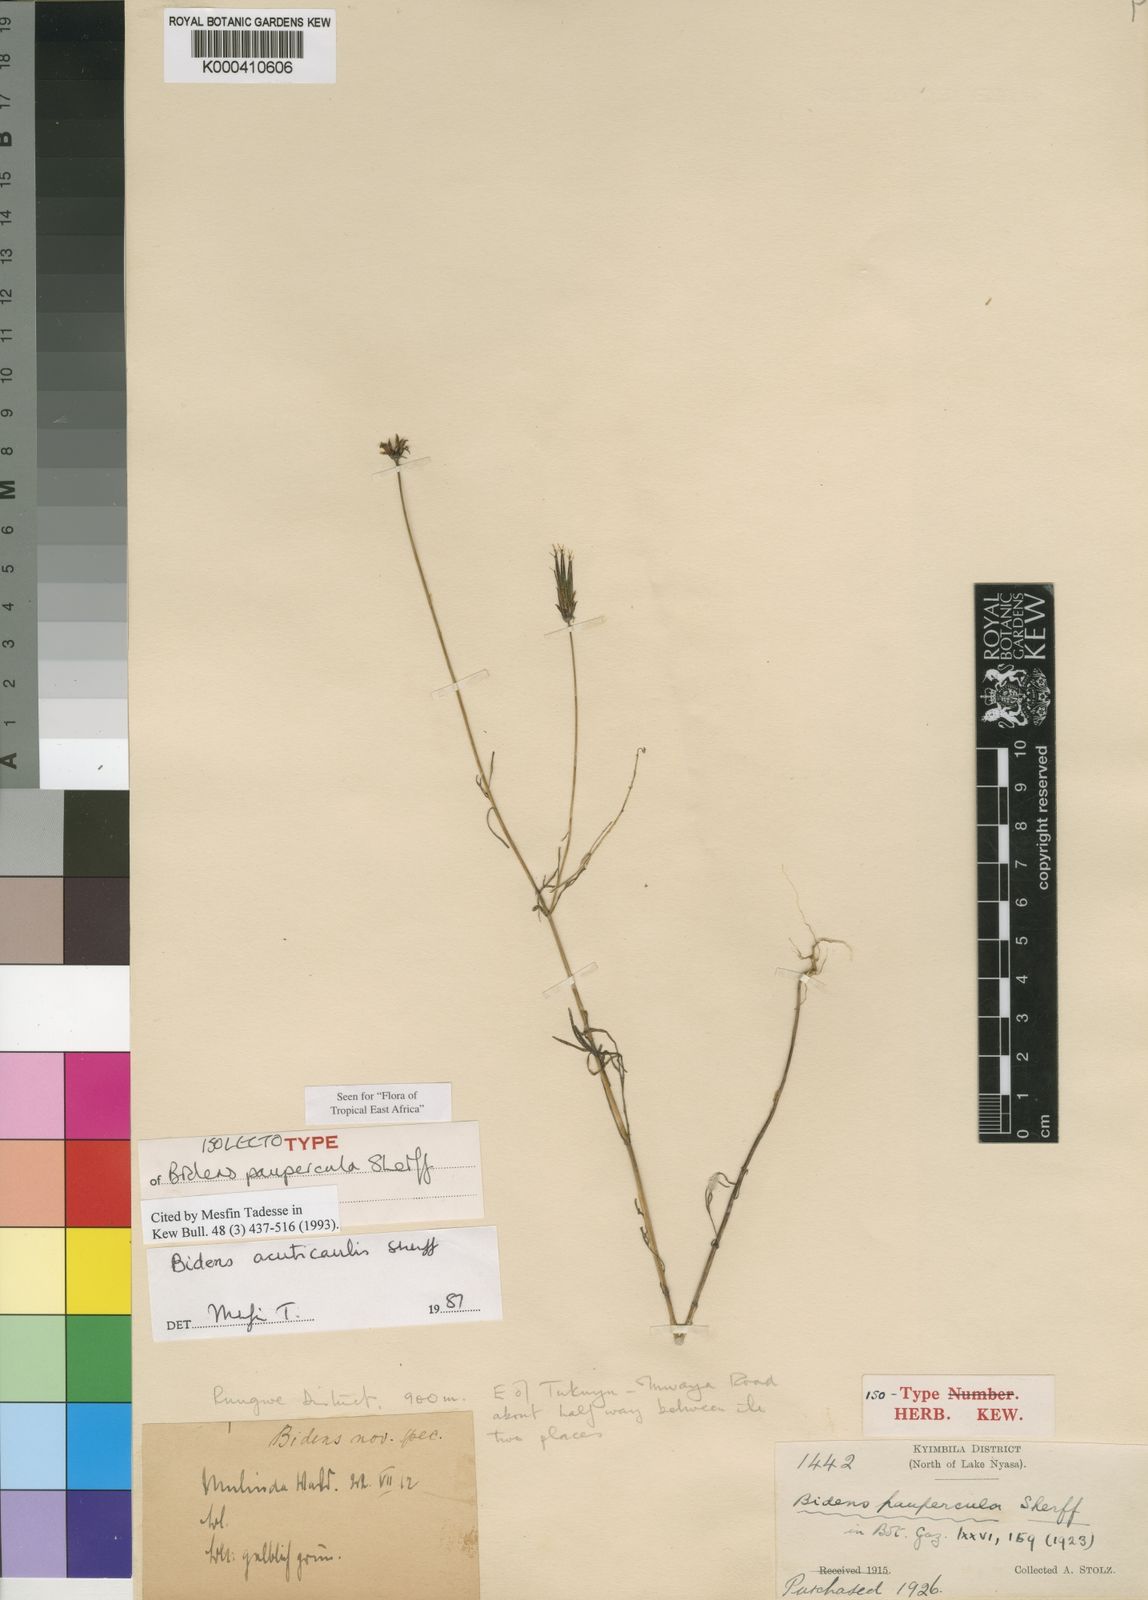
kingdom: Plantae
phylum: Tracheophyta
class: Magnoliopsida
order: Asterales
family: Asteraceae
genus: Bidens
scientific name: Bidens acuticaulis
